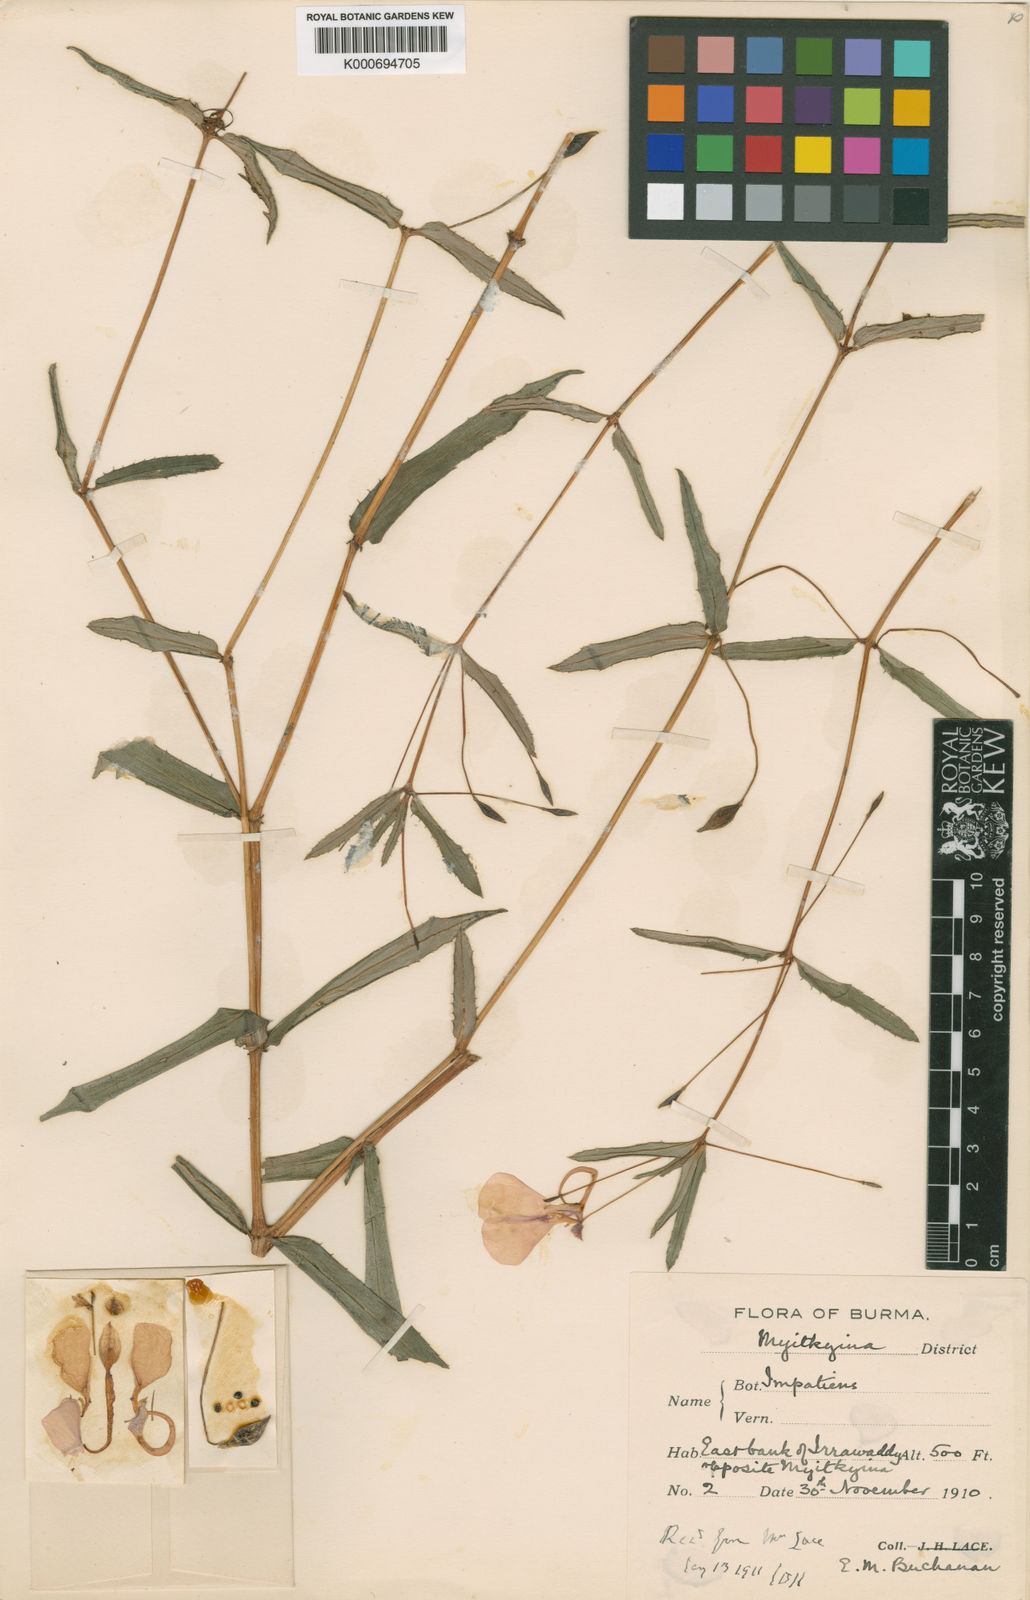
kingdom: Plantae
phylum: Tracheophyta
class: Magnoliopsida
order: Ericales
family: Balsaminaceae
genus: Impatiens
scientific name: Impatiens chinensis
